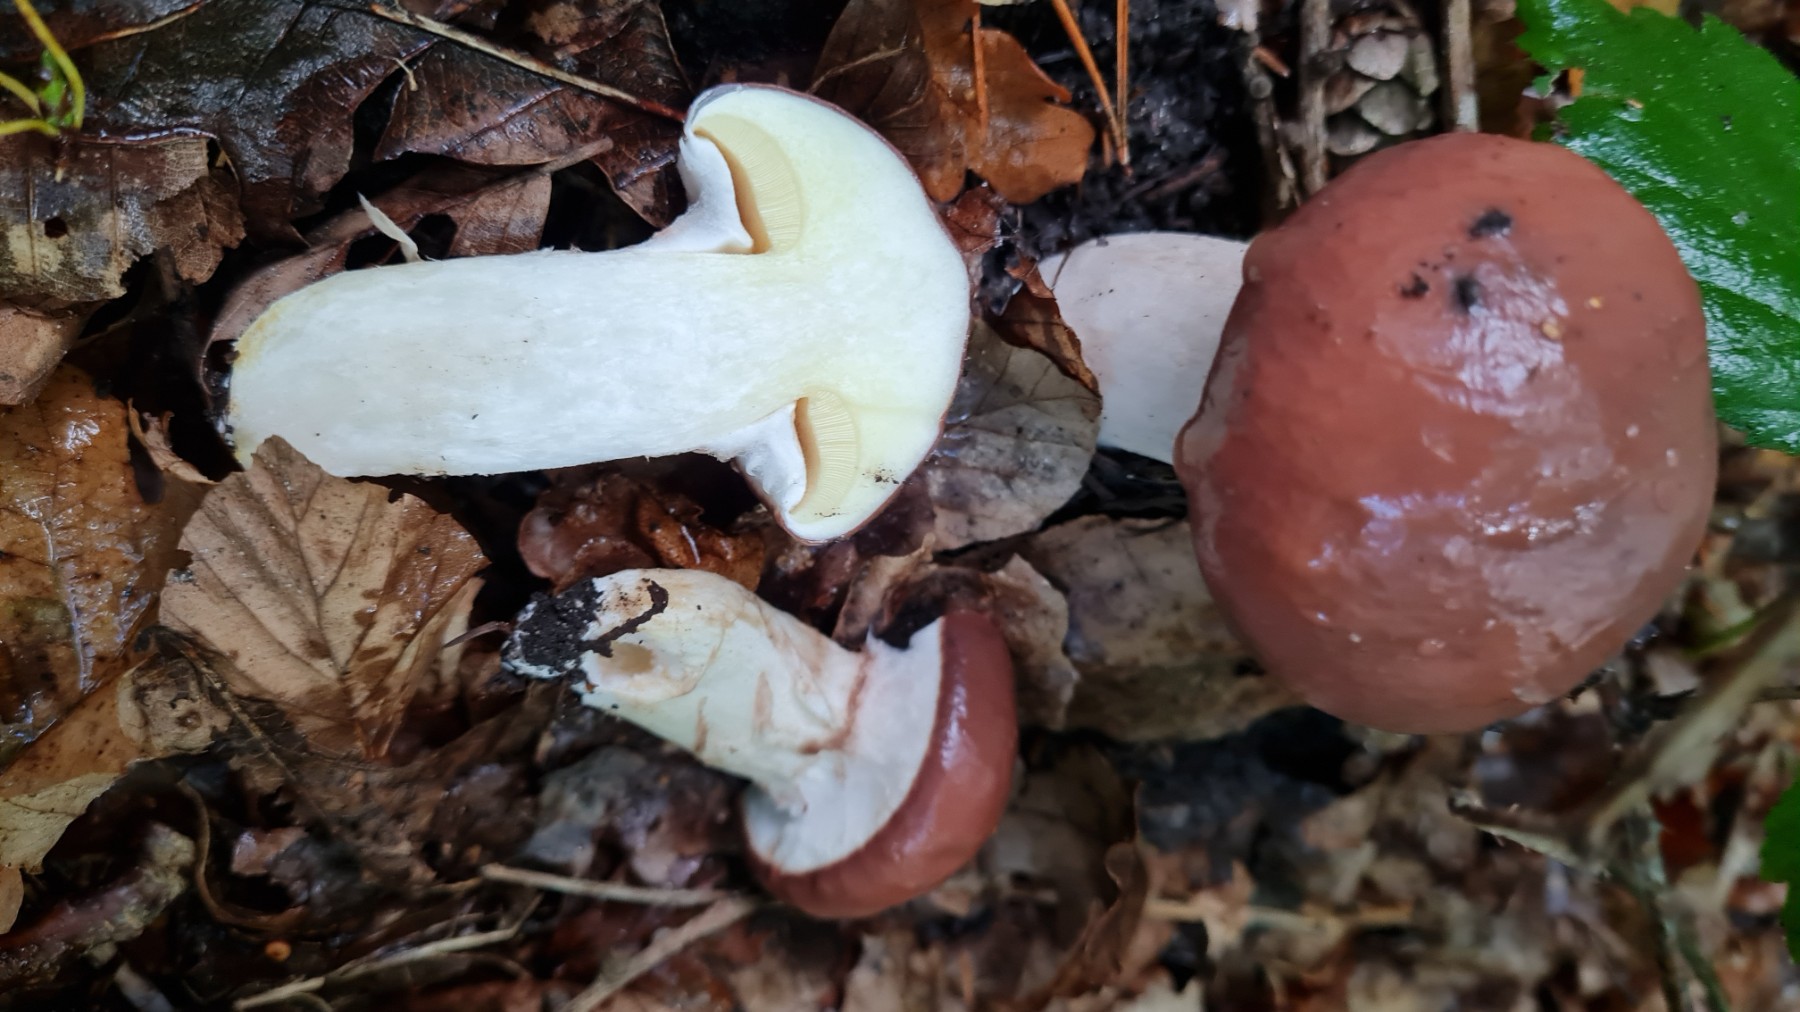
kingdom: Fungi
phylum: Basidiomycota
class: Agaricomycetes
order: Boletales
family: Suillaceae
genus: Suillus
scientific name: Suillus luteus
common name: brungul slimrørhat
